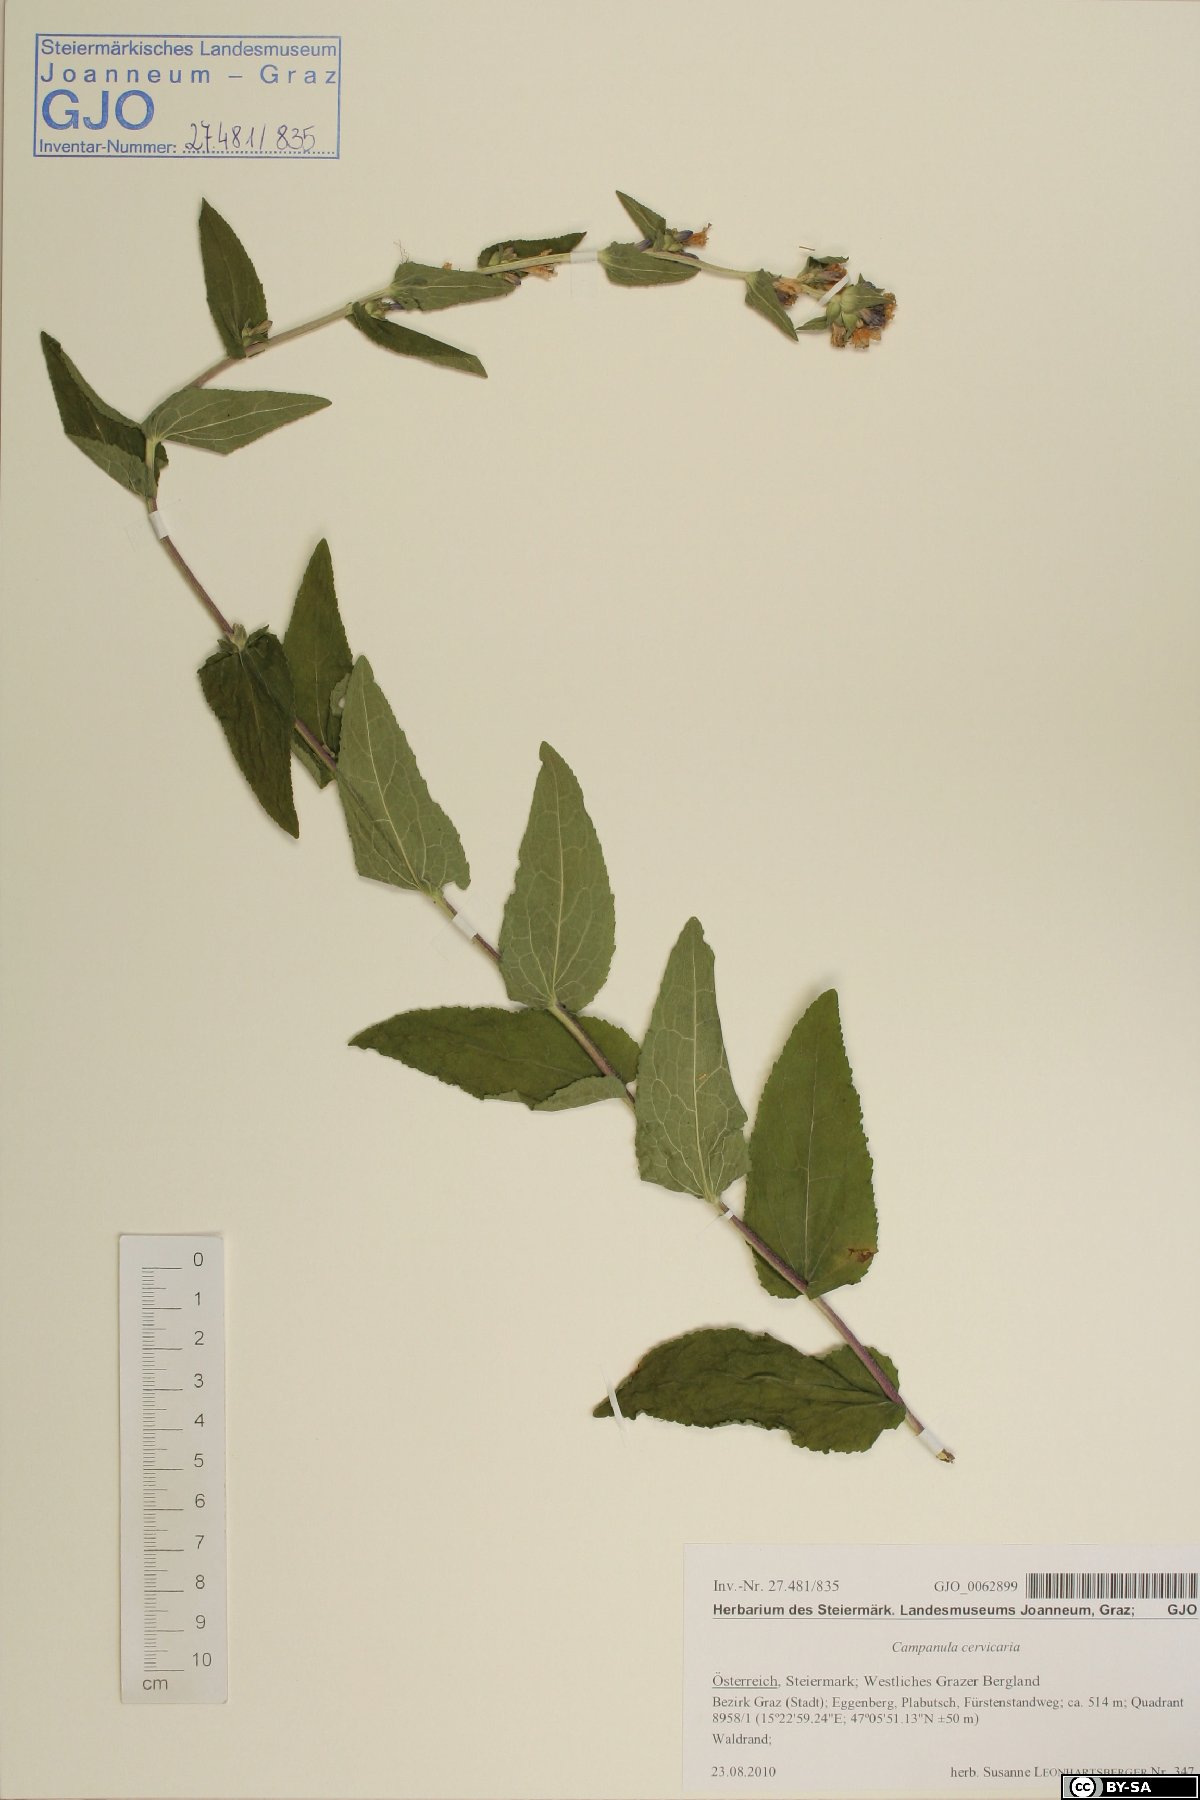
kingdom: Plantae
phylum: Tracheophyta
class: Magnoliopsida
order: Asterales
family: Campanulaceae
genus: Campanula
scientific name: Campanula glomerata
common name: Clustered bellflower
